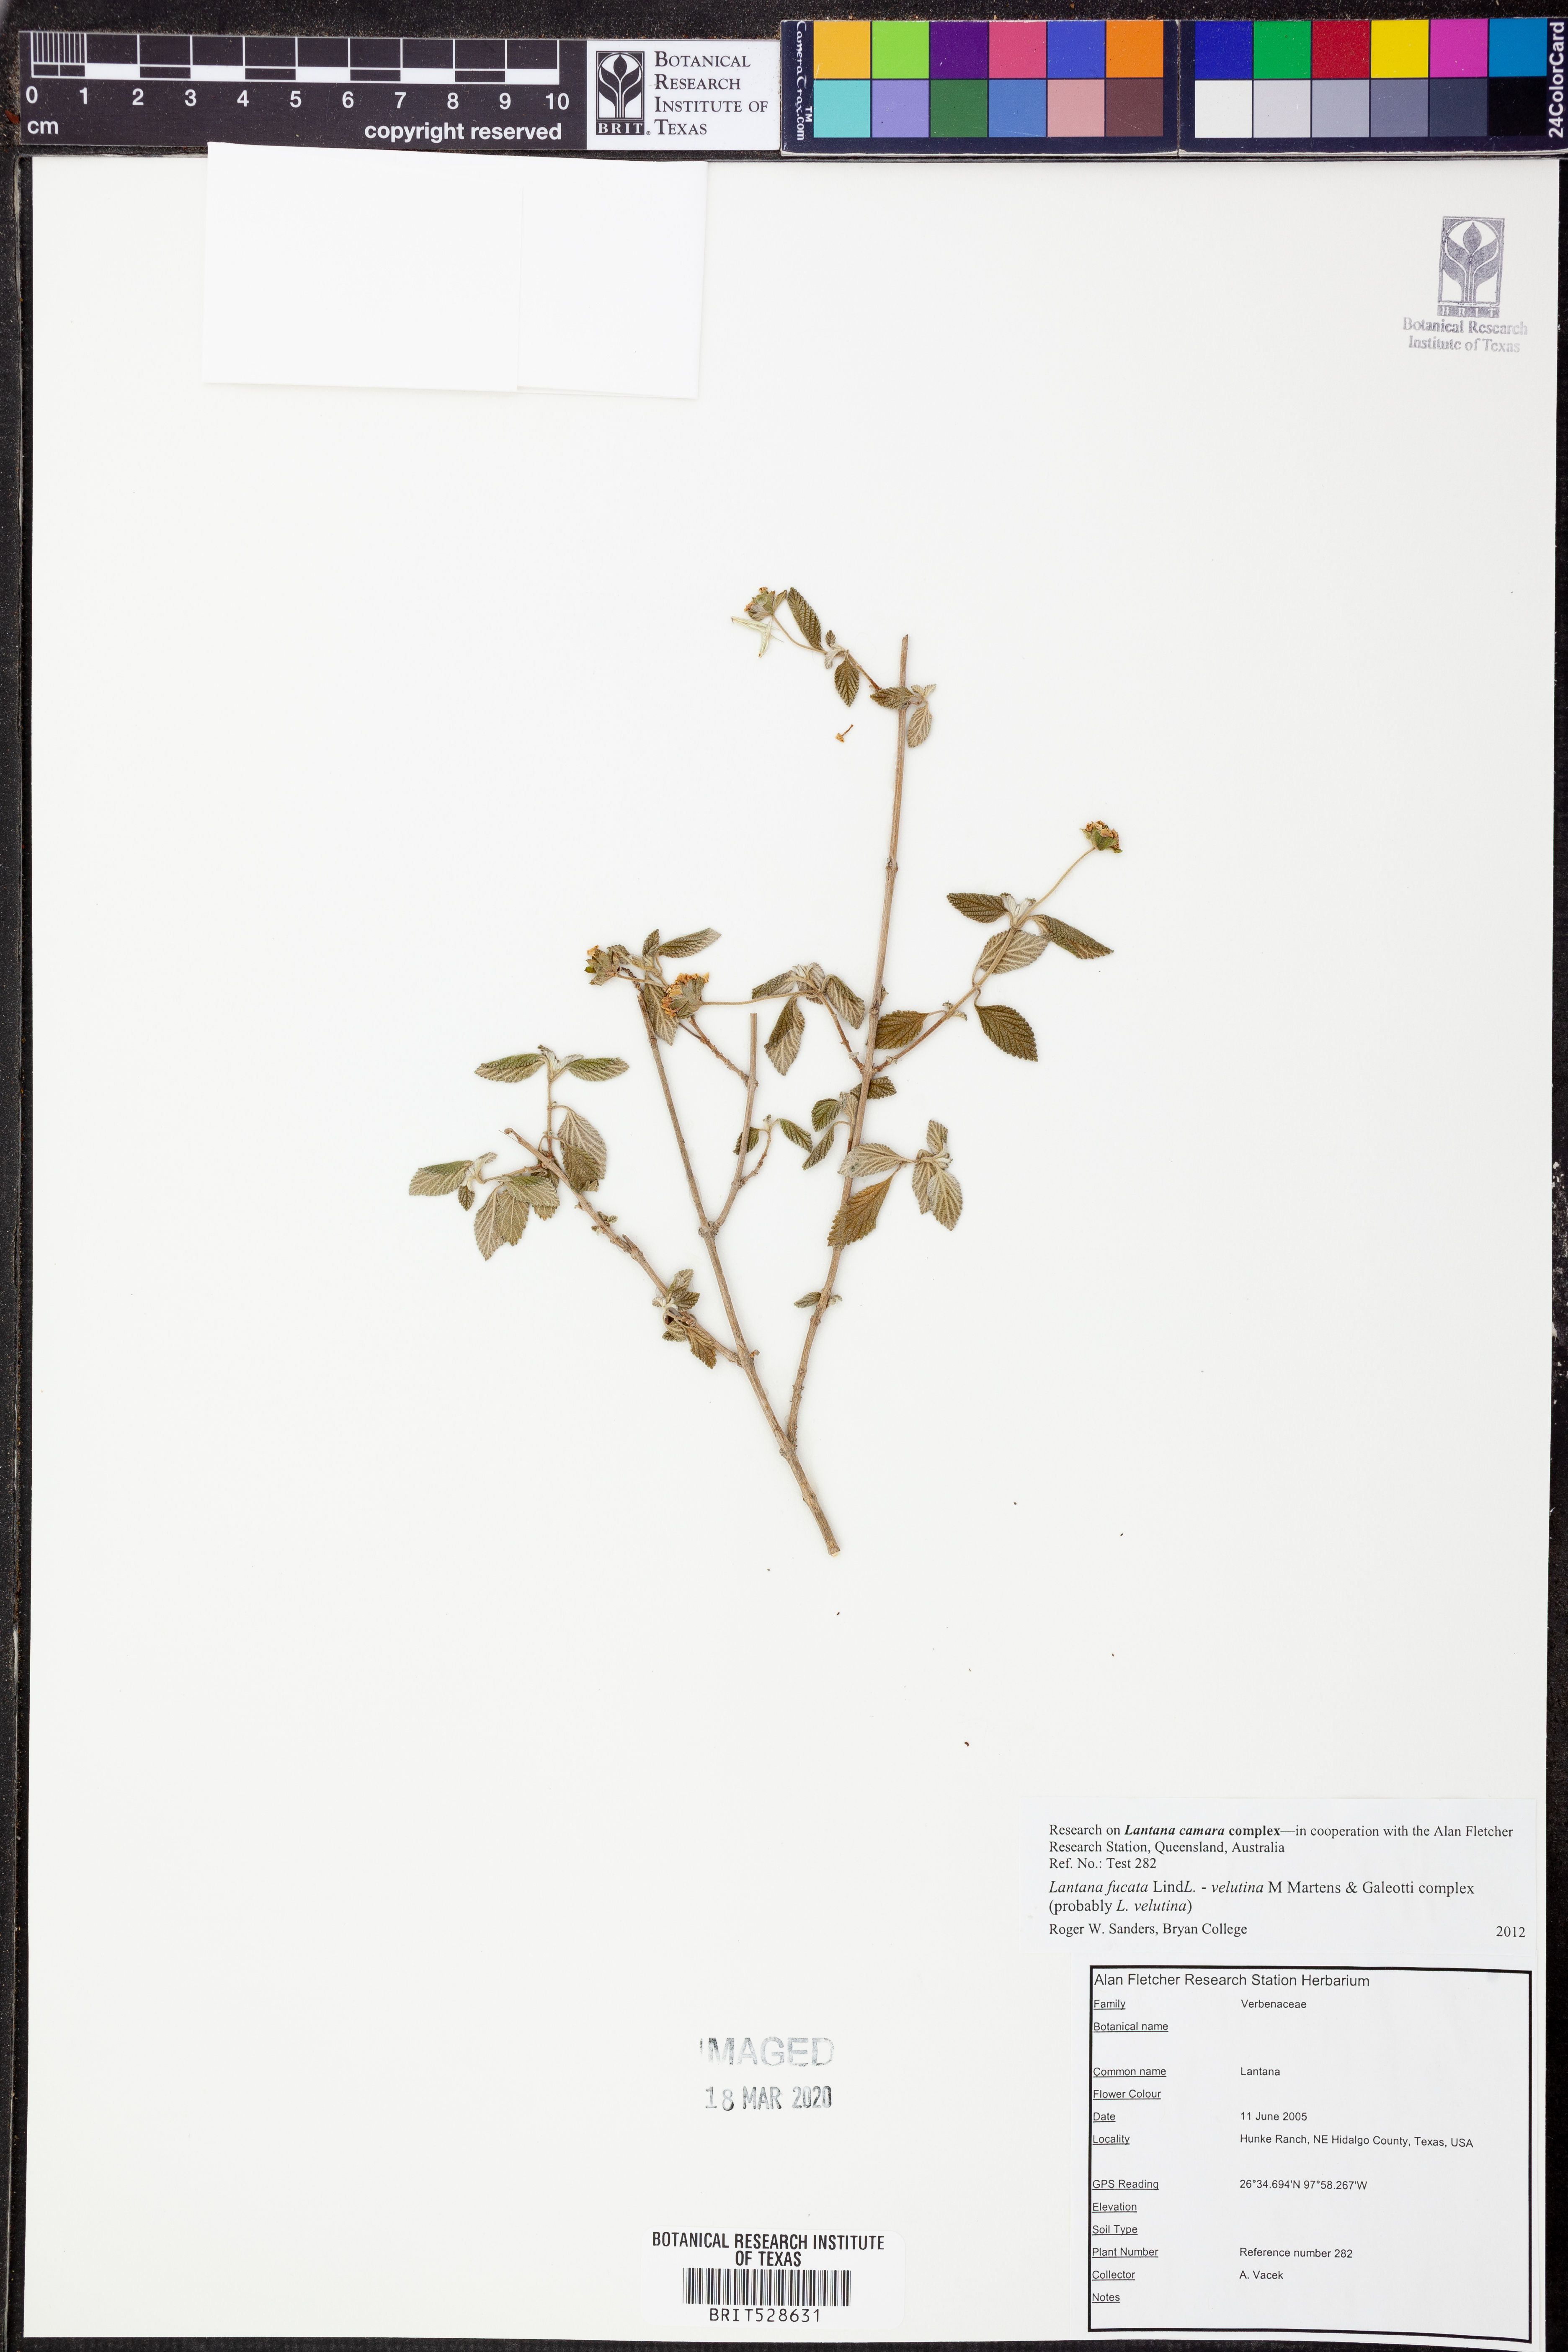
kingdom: Plantae
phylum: Tracheophyta
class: Magnoliopsida
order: Lamiales
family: Verbenaceae
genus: Lantana
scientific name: Lantana fucata
